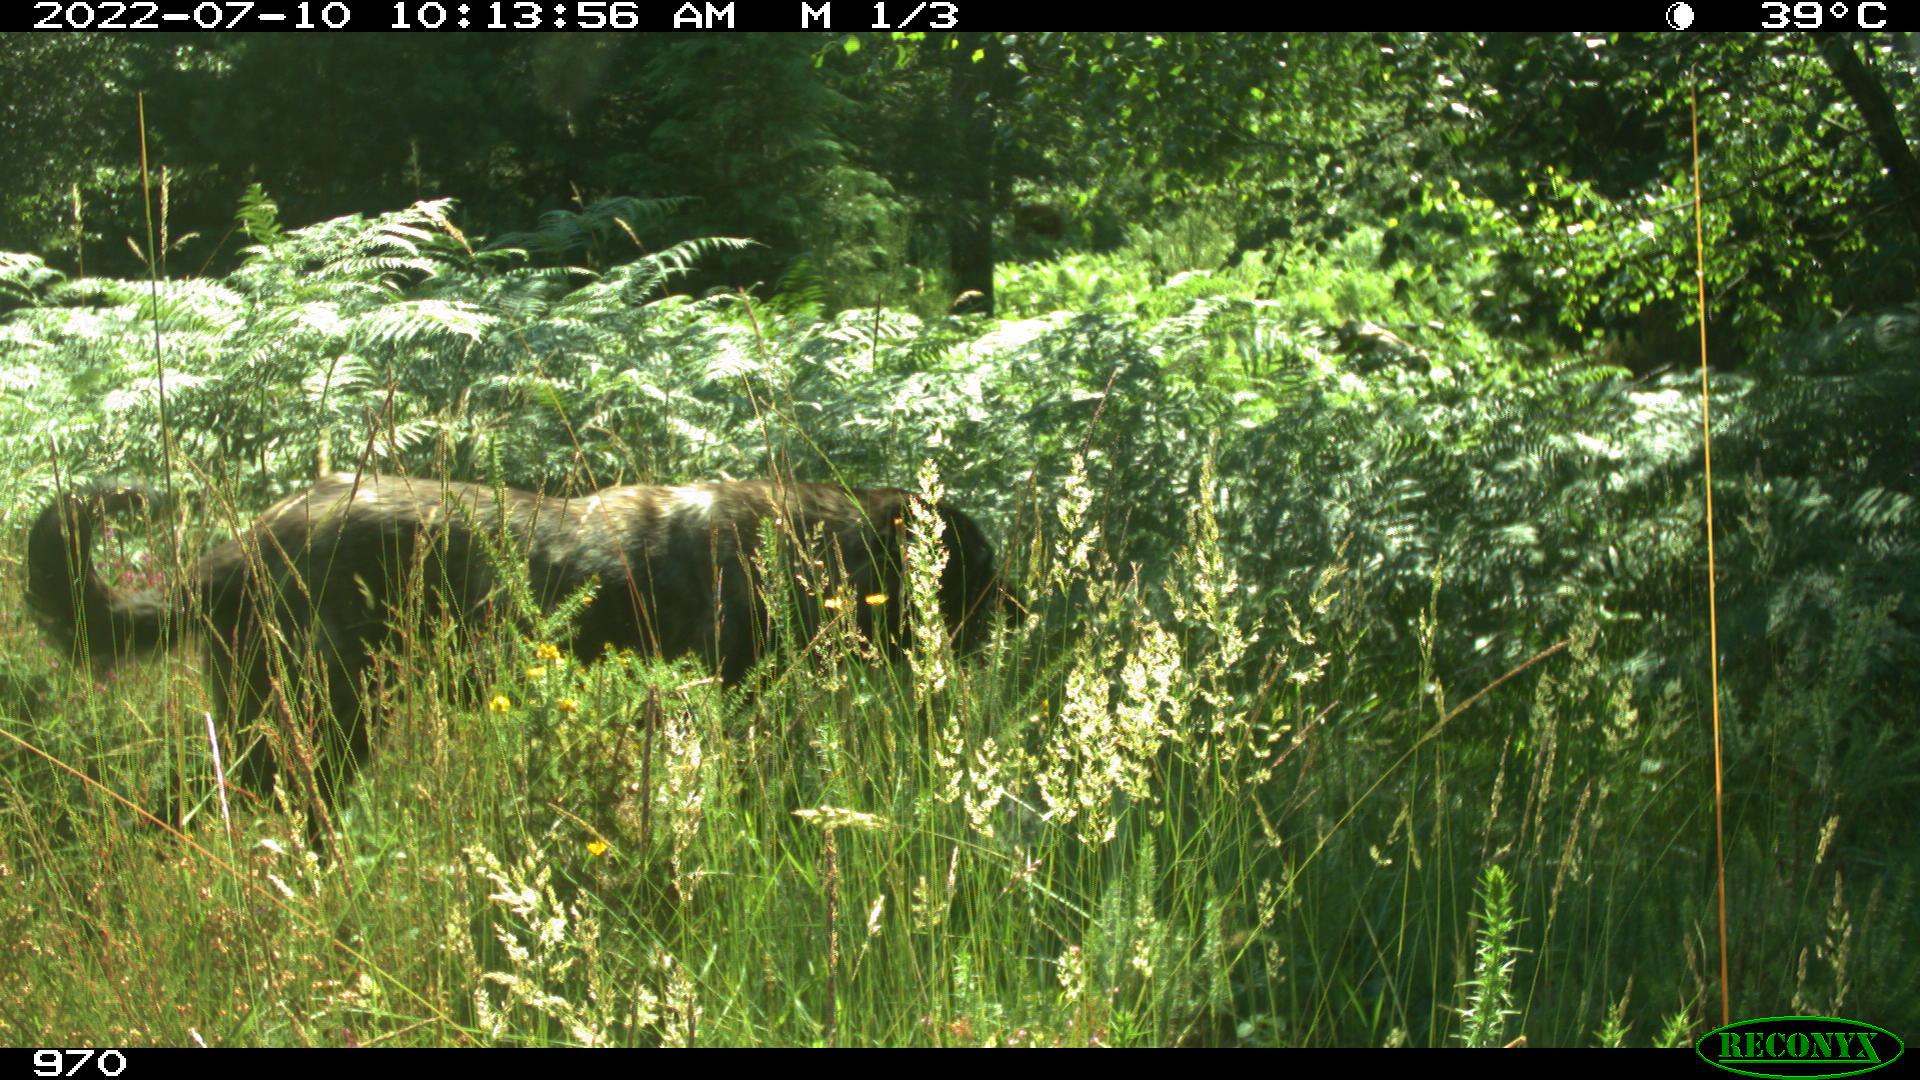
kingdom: Animalia
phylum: Chordata
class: Mammalia
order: Carnivora
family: Canidae
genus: Canis
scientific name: Canis lupus
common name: Gray wolf
